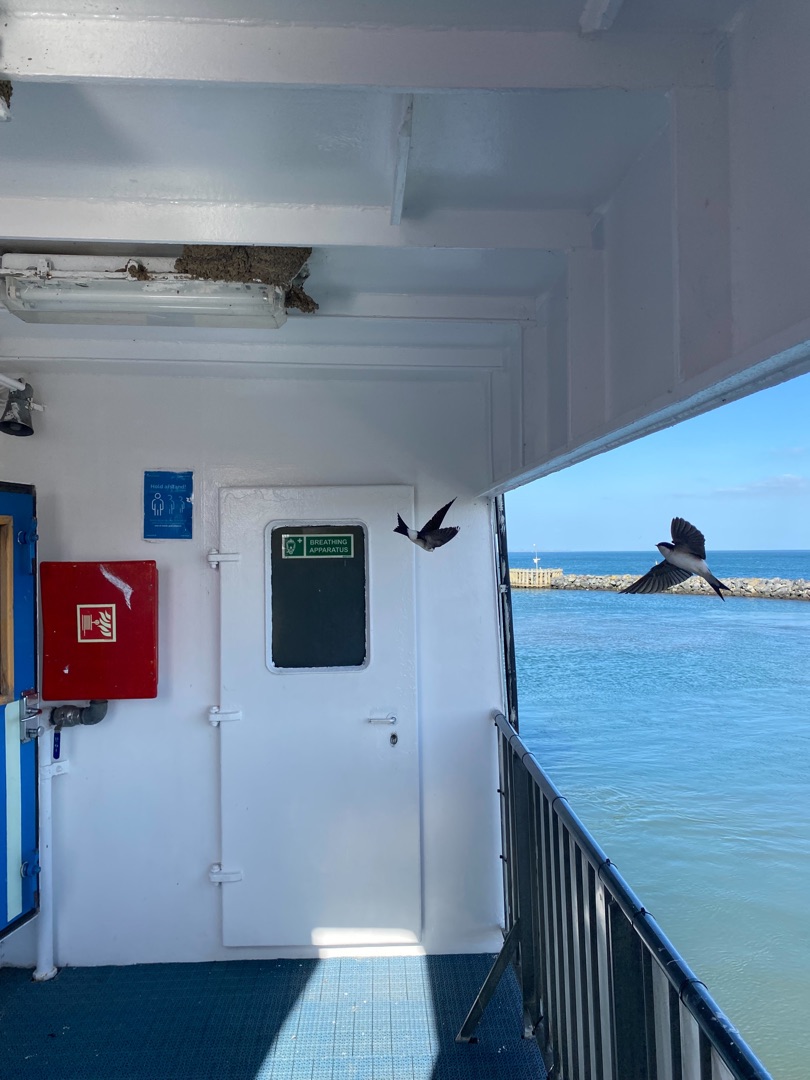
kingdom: Animalia
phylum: Chordata
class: Aves
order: Passeriformes
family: Hirundinidae
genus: Delichon
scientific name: Delichon urbicum
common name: Bysvale
